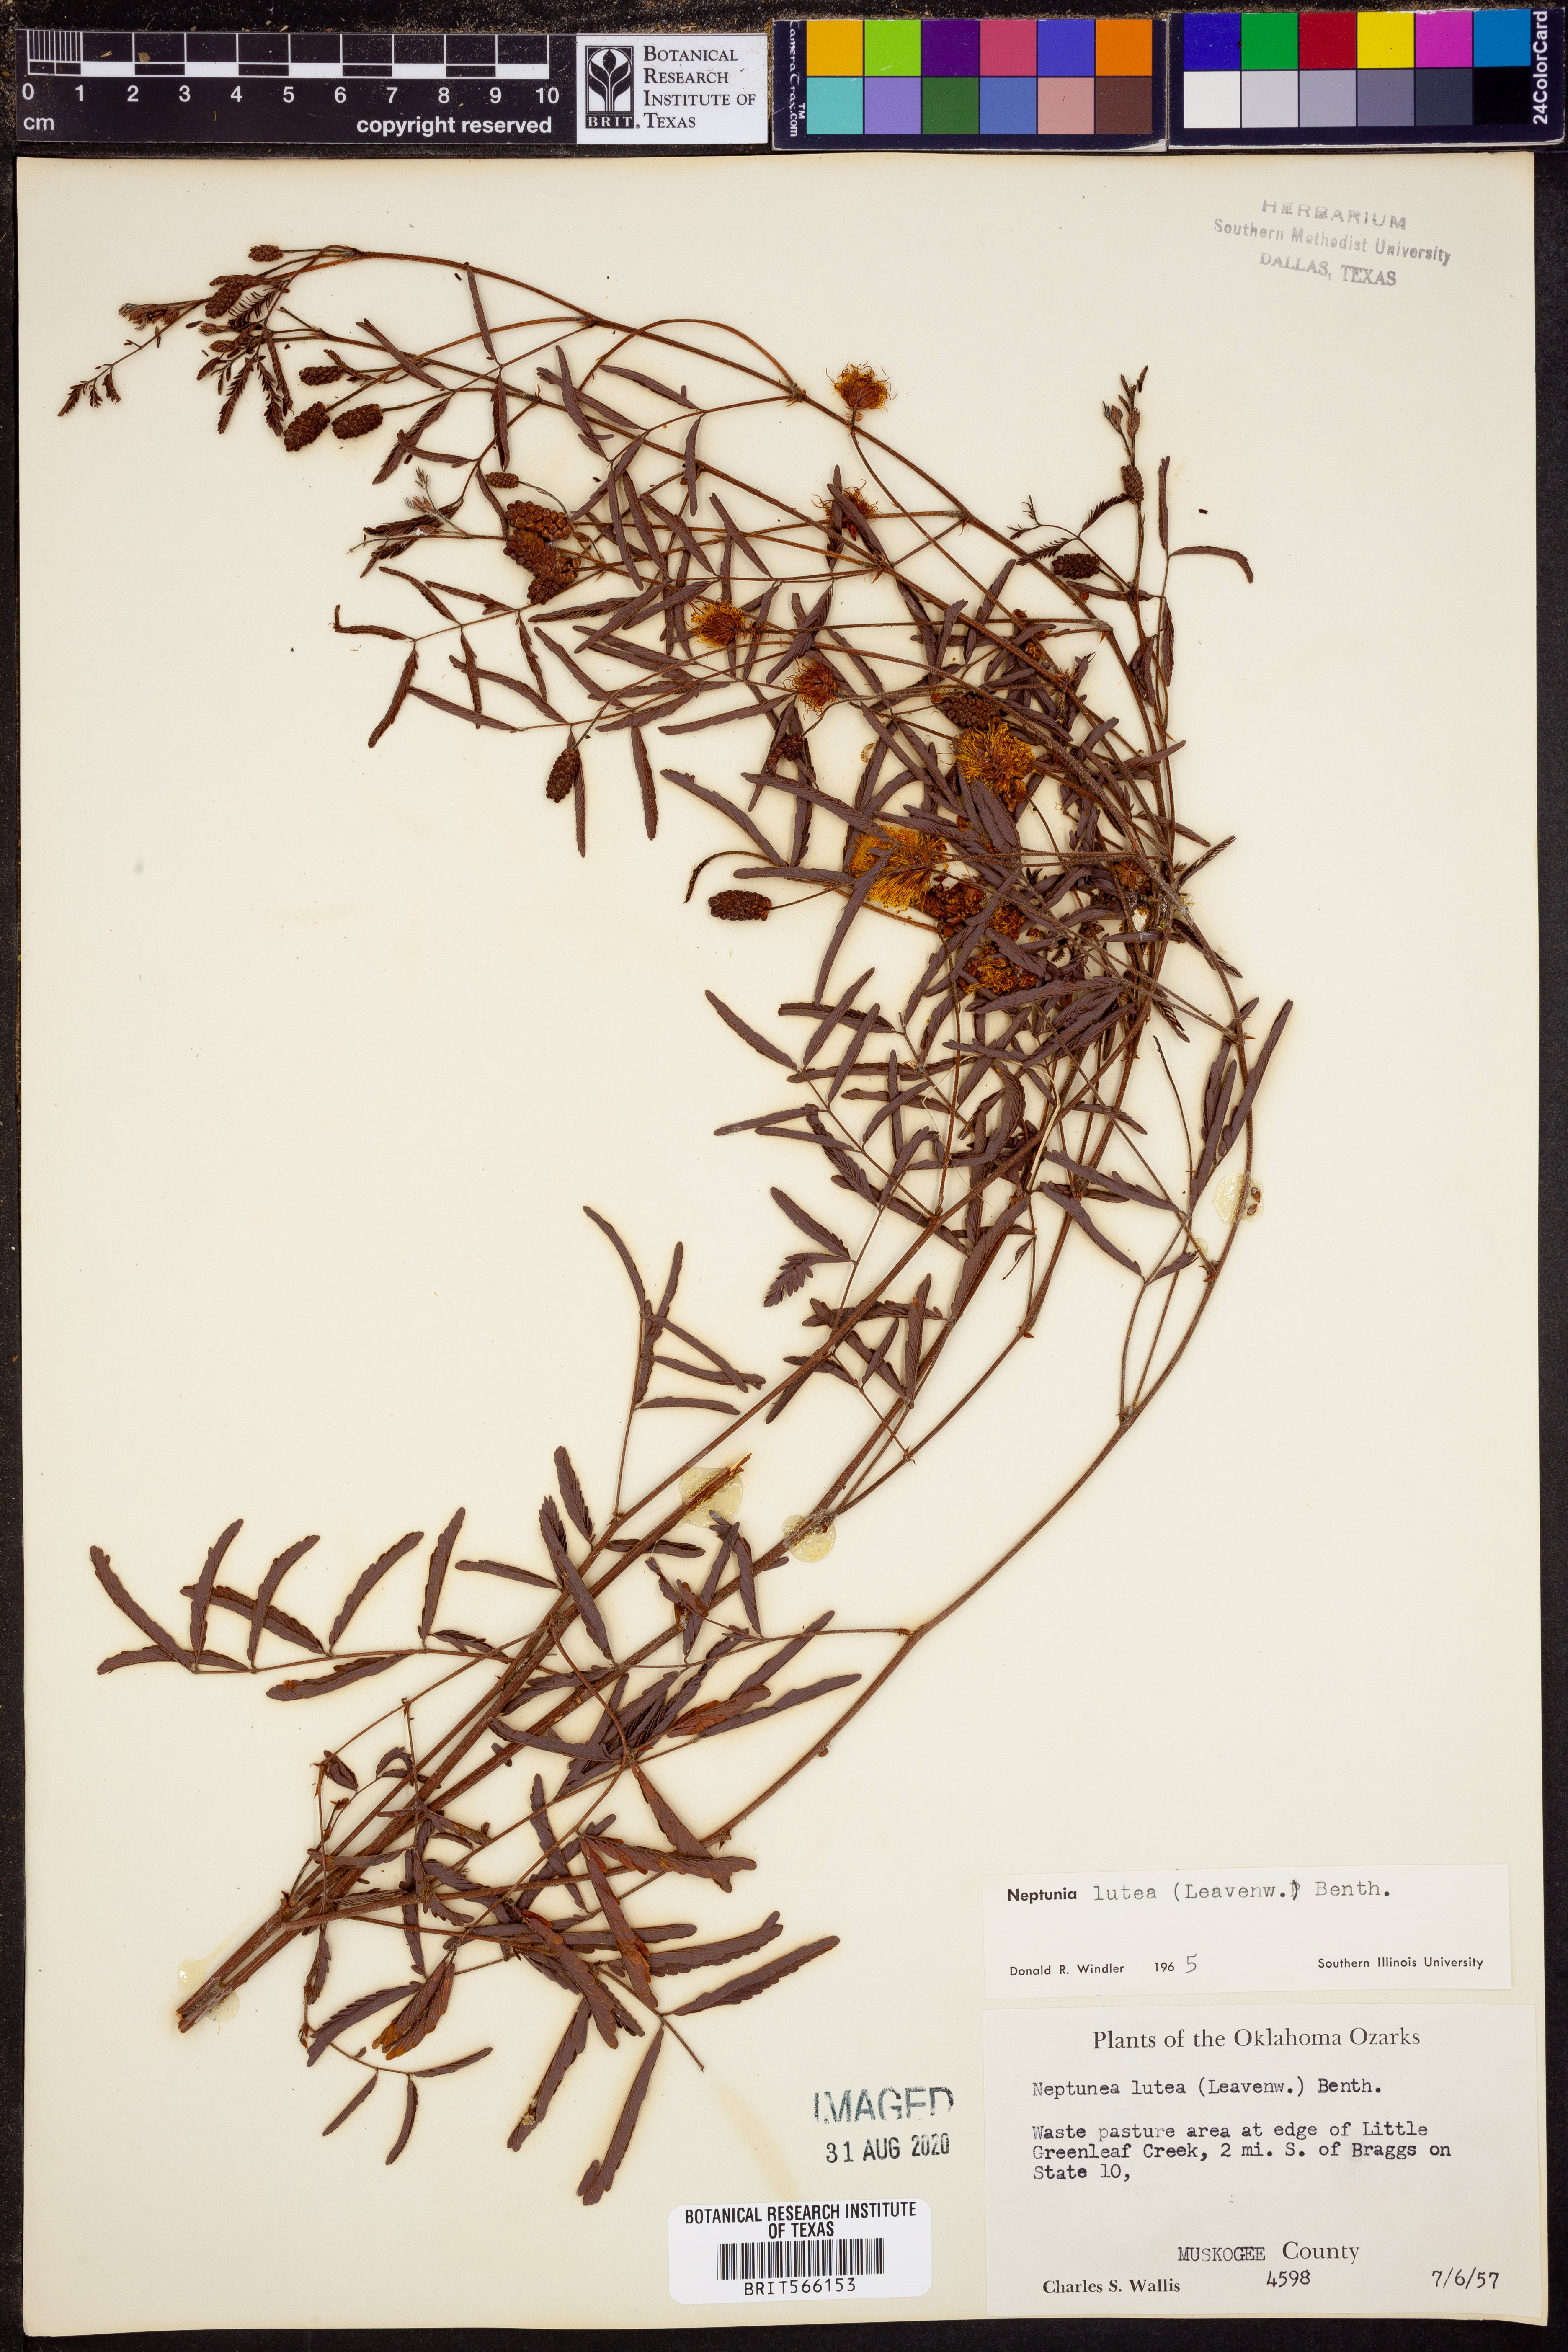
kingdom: Plantae
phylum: Tracheophyta
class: Magnoliopsida
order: Fabales
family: Fabaceae
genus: Neptunia
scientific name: Neptunia lutea
